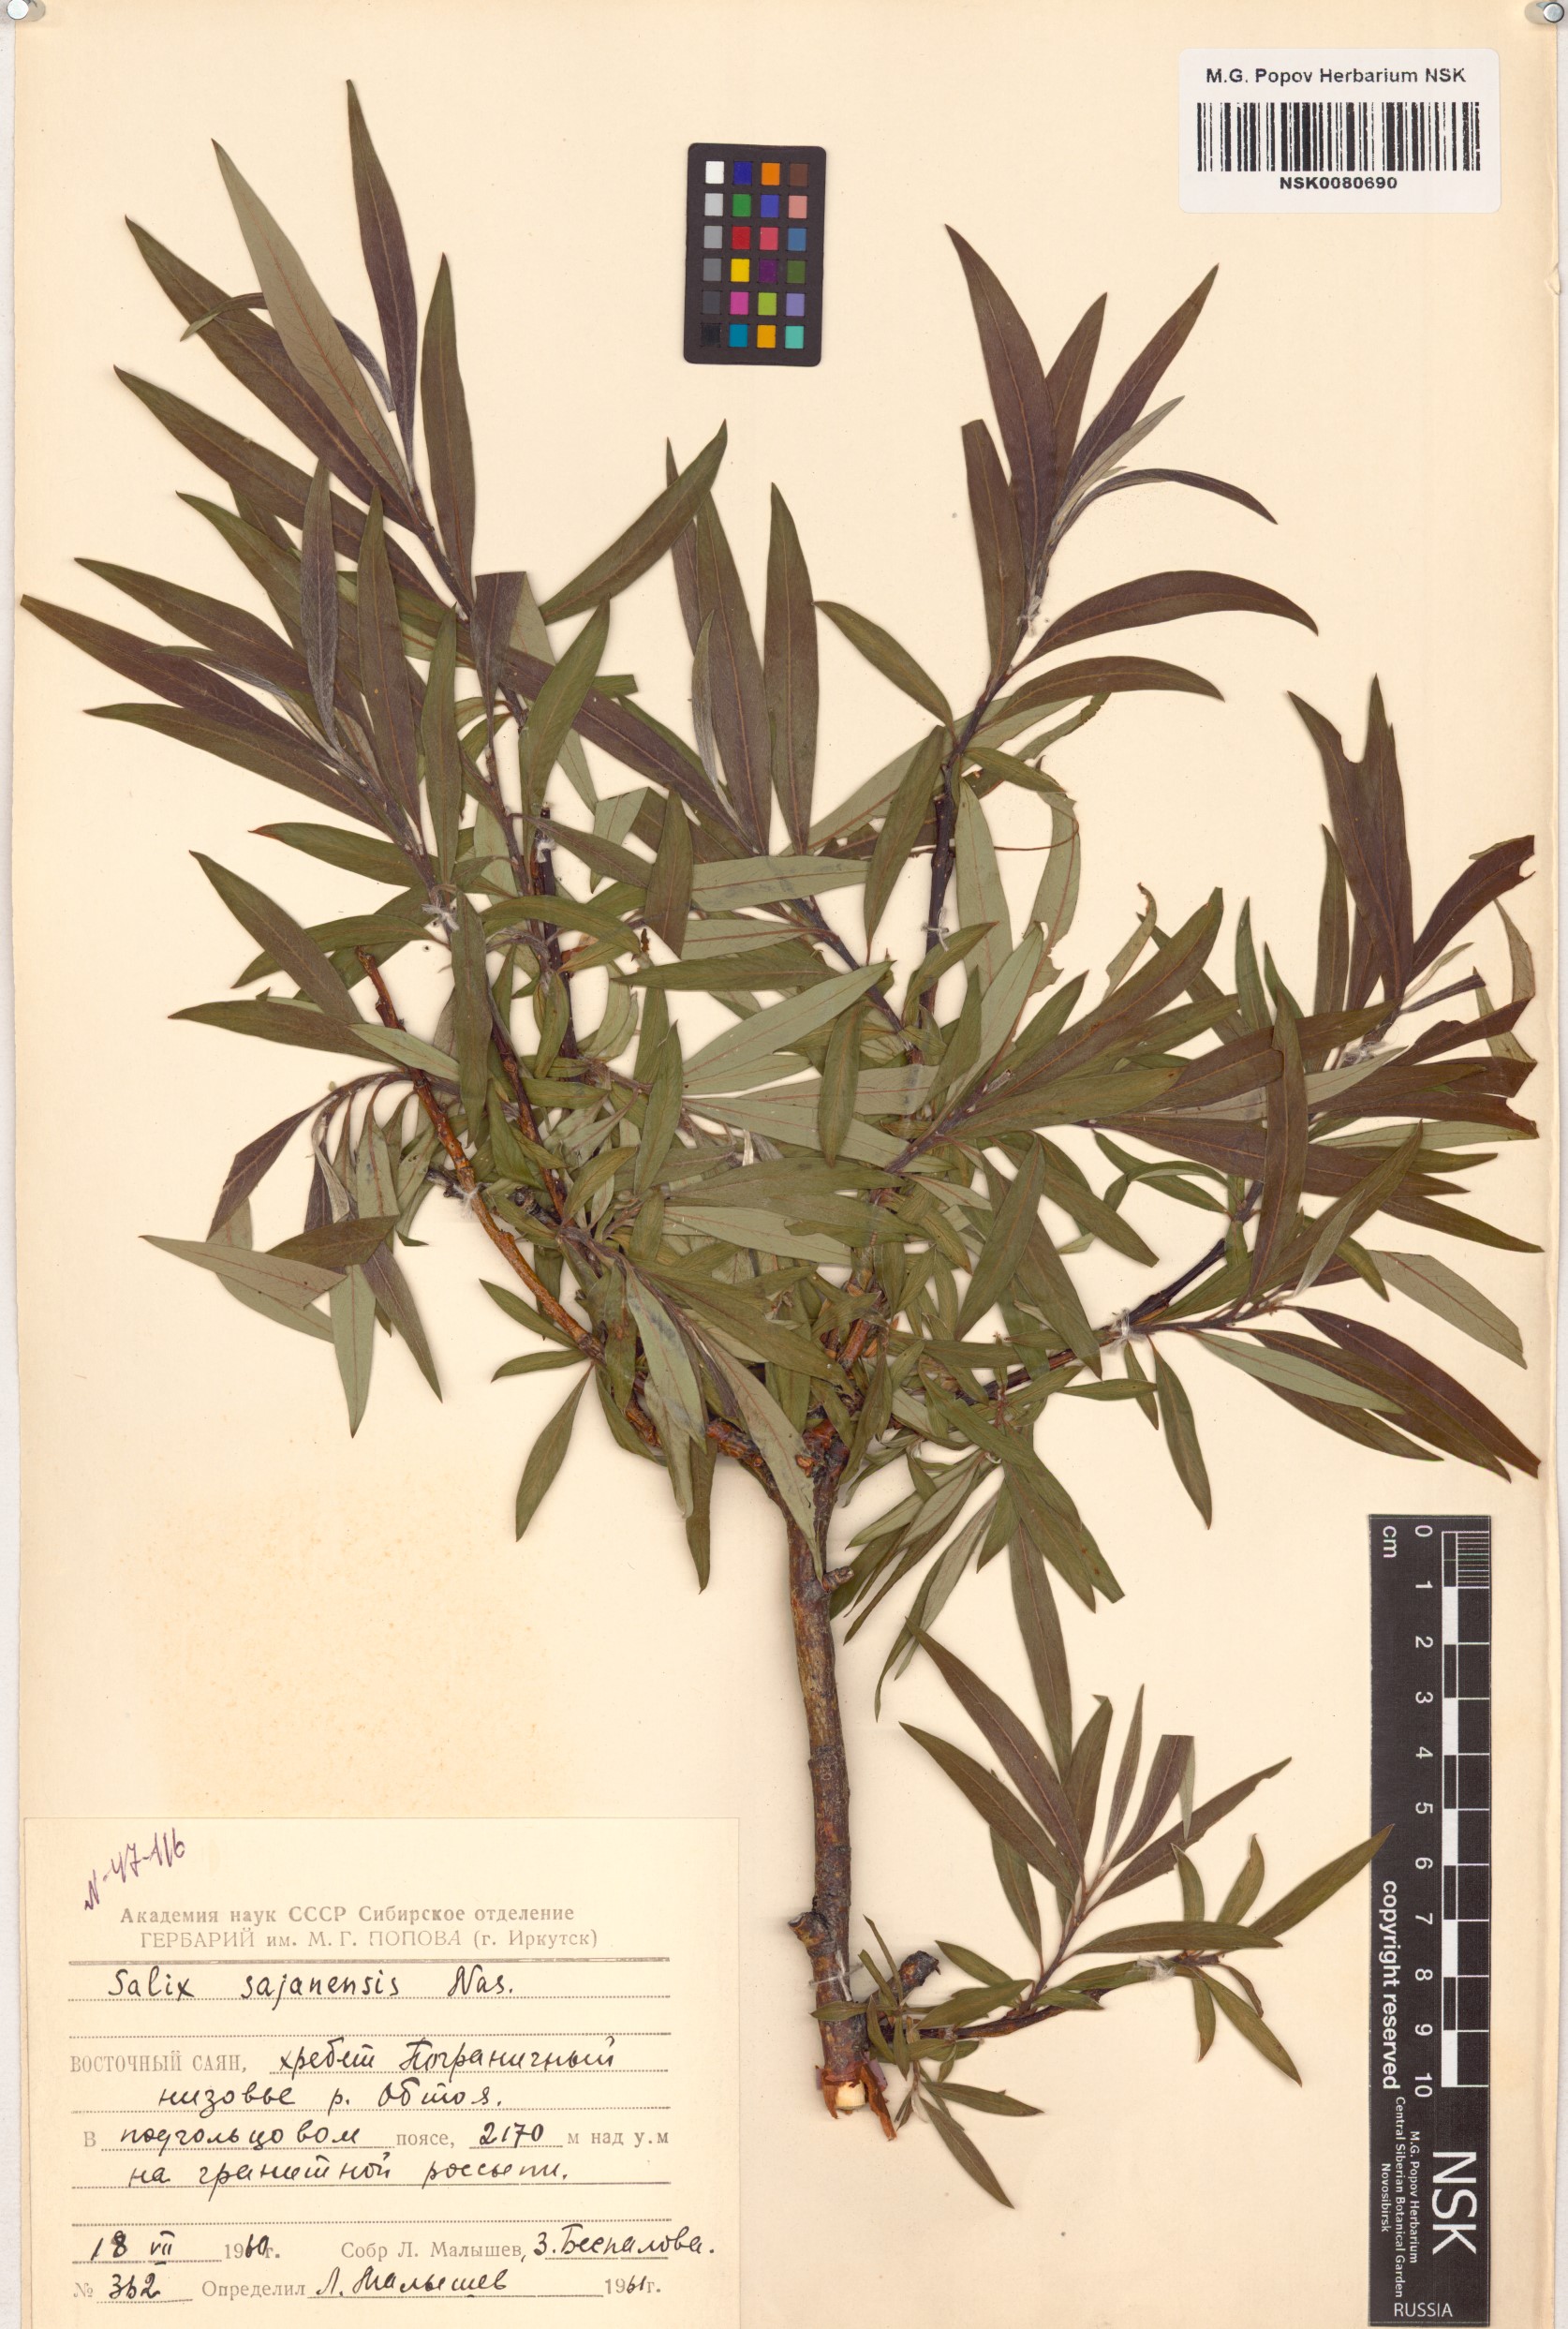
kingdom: Plantae
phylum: Tracheophyta
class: Magnoliopsida
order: Malpighiales
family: Salicaceae
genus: Salix
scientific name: Salix sajanensis
